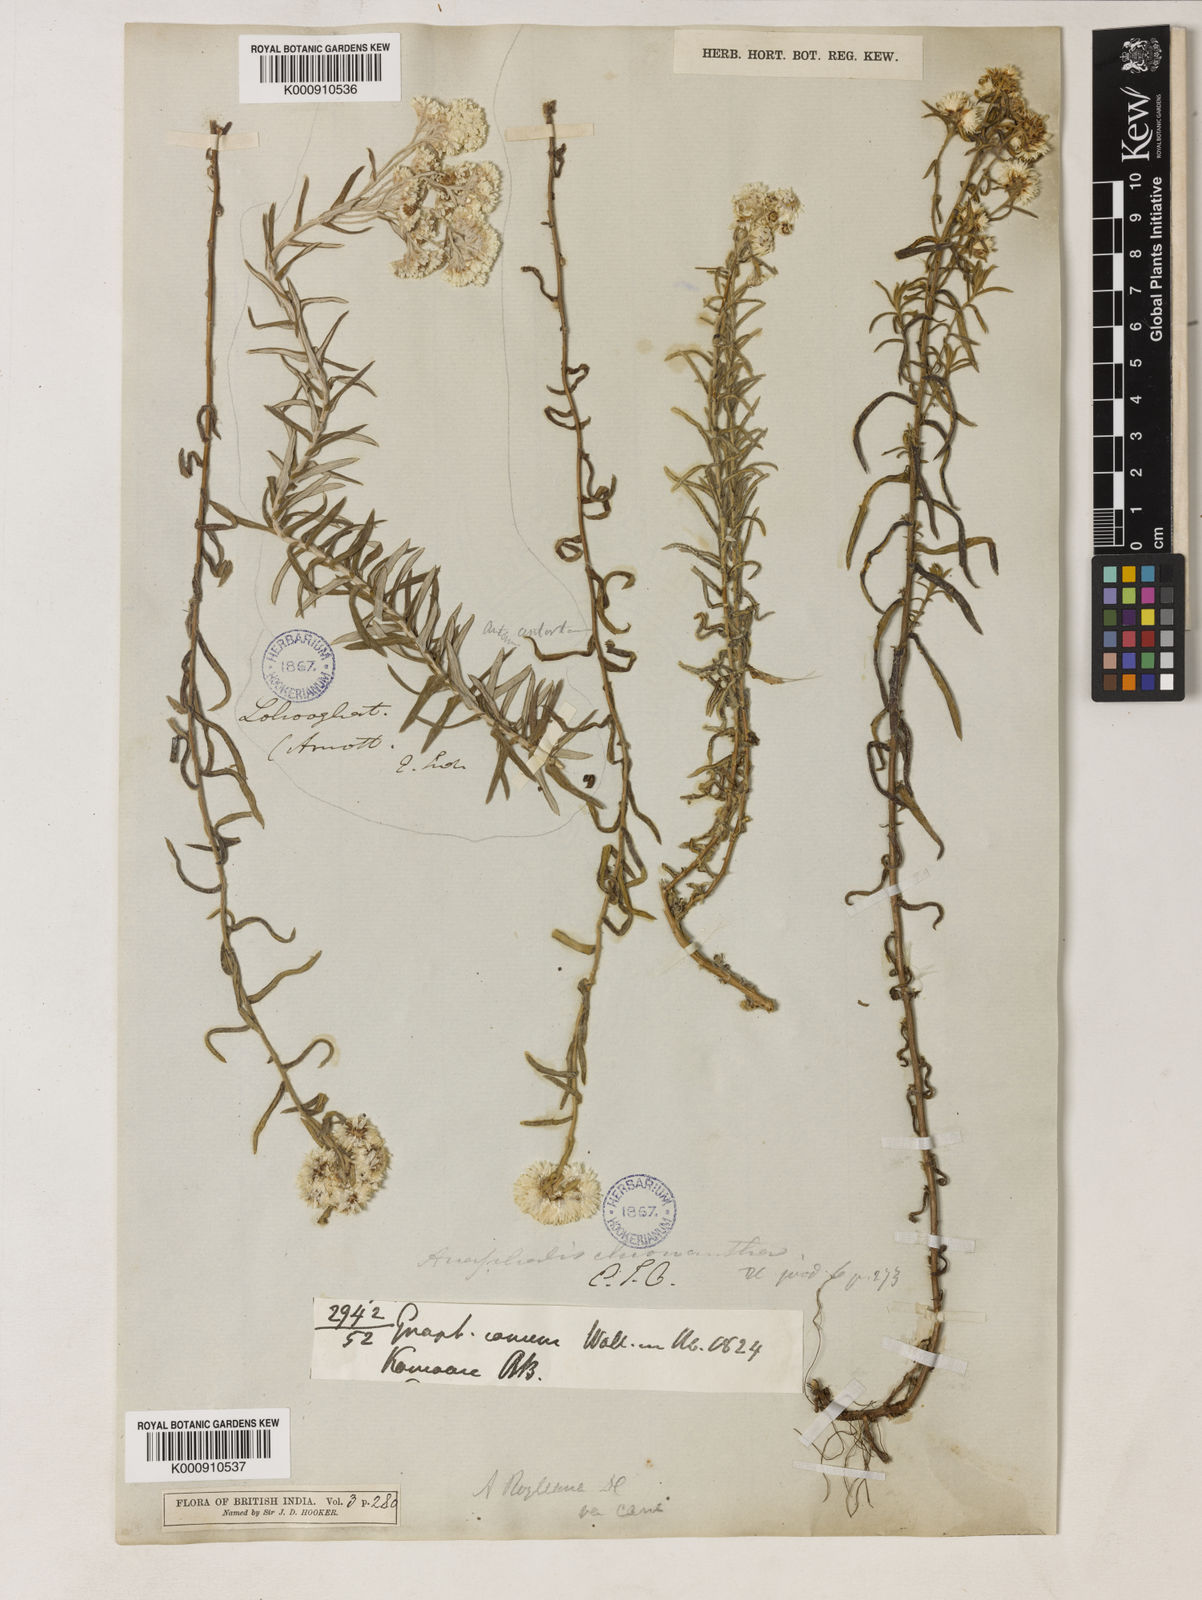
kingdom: Plantae
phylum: Tracheophyta
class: Magnoliopsida
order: Asterales
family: Asteraceae
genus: Anaphalis
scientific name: Anaphalis royleana
